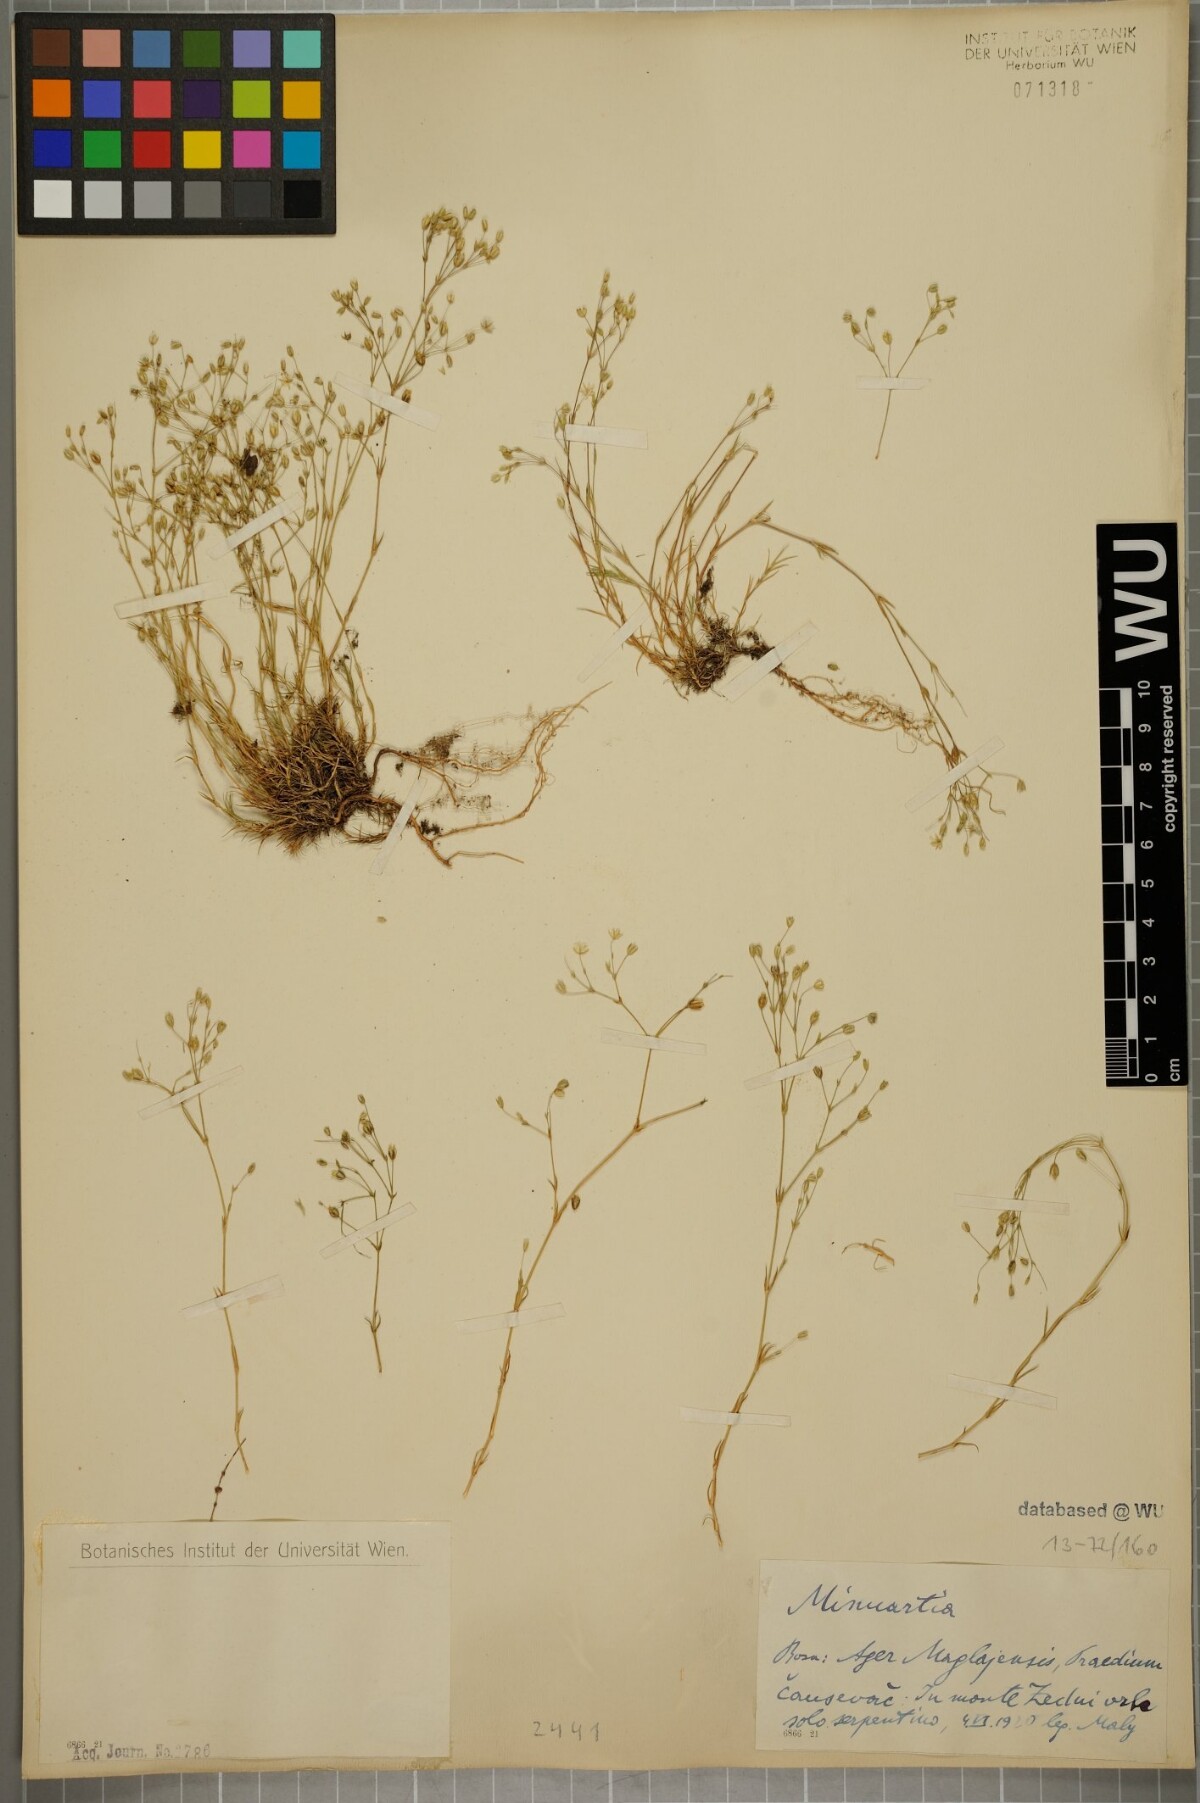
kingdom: Plantae
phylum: Tracheophyta
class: Magnoliopsida
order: Caryophyllales
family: Caryophyllaceae
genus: Sabulina
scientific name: Sabulina verna
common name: Spring sandwort
